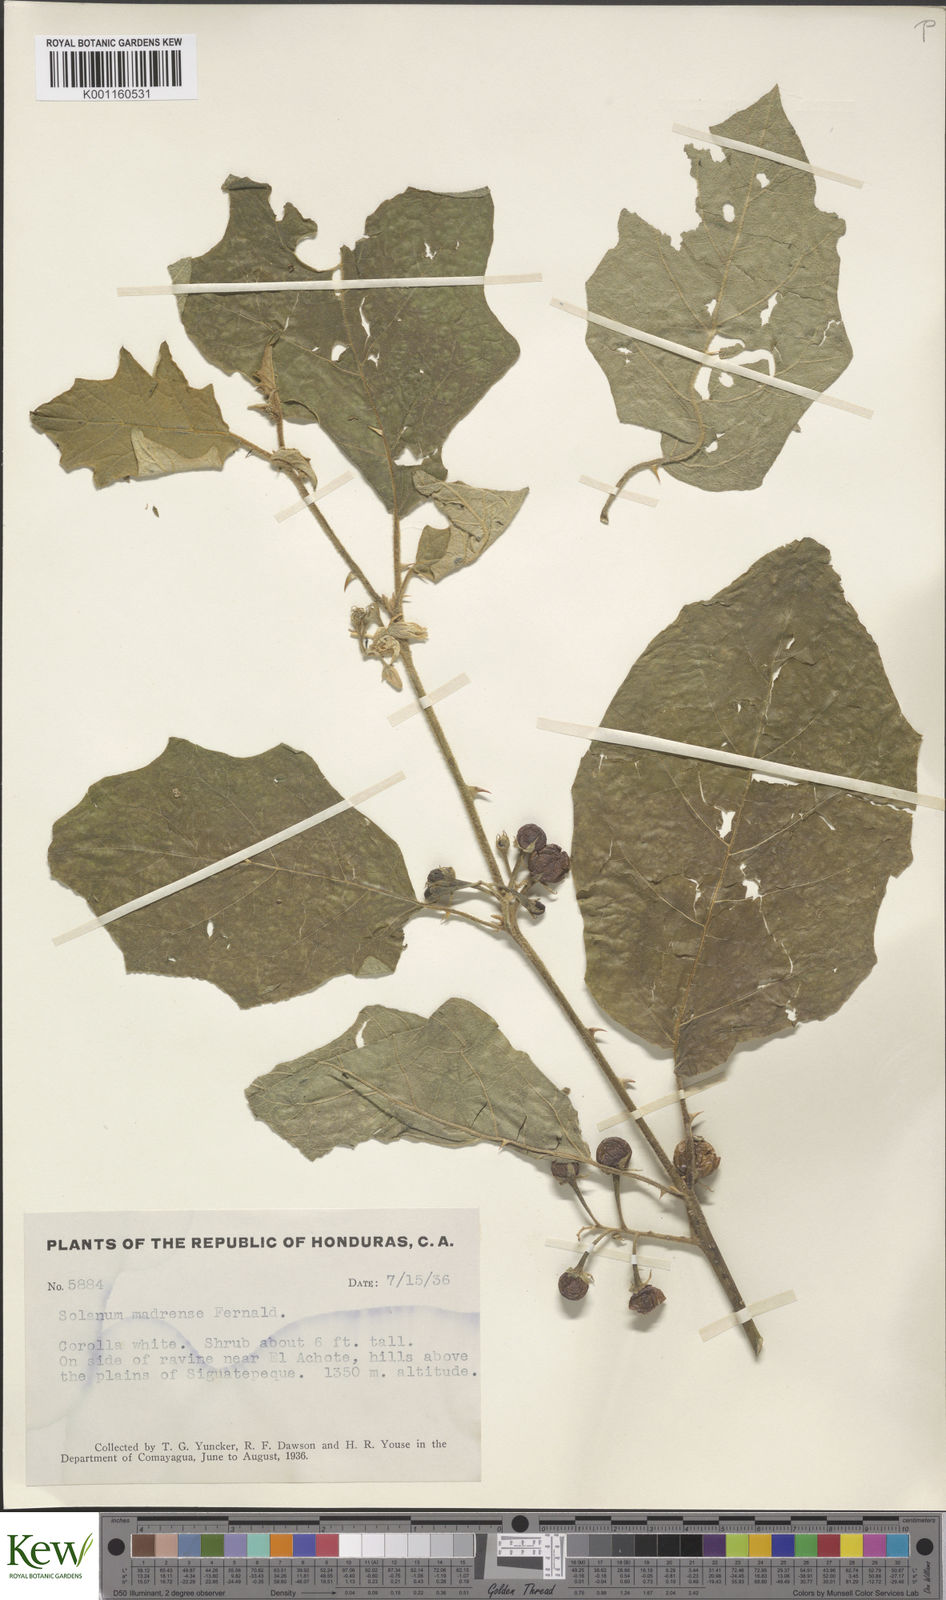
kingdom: Plantae
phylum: Tracheophyta
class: Magnoliopsida
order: Solanales
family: Solanaceae
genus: Solanum
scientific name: Solanum ferrugineum
